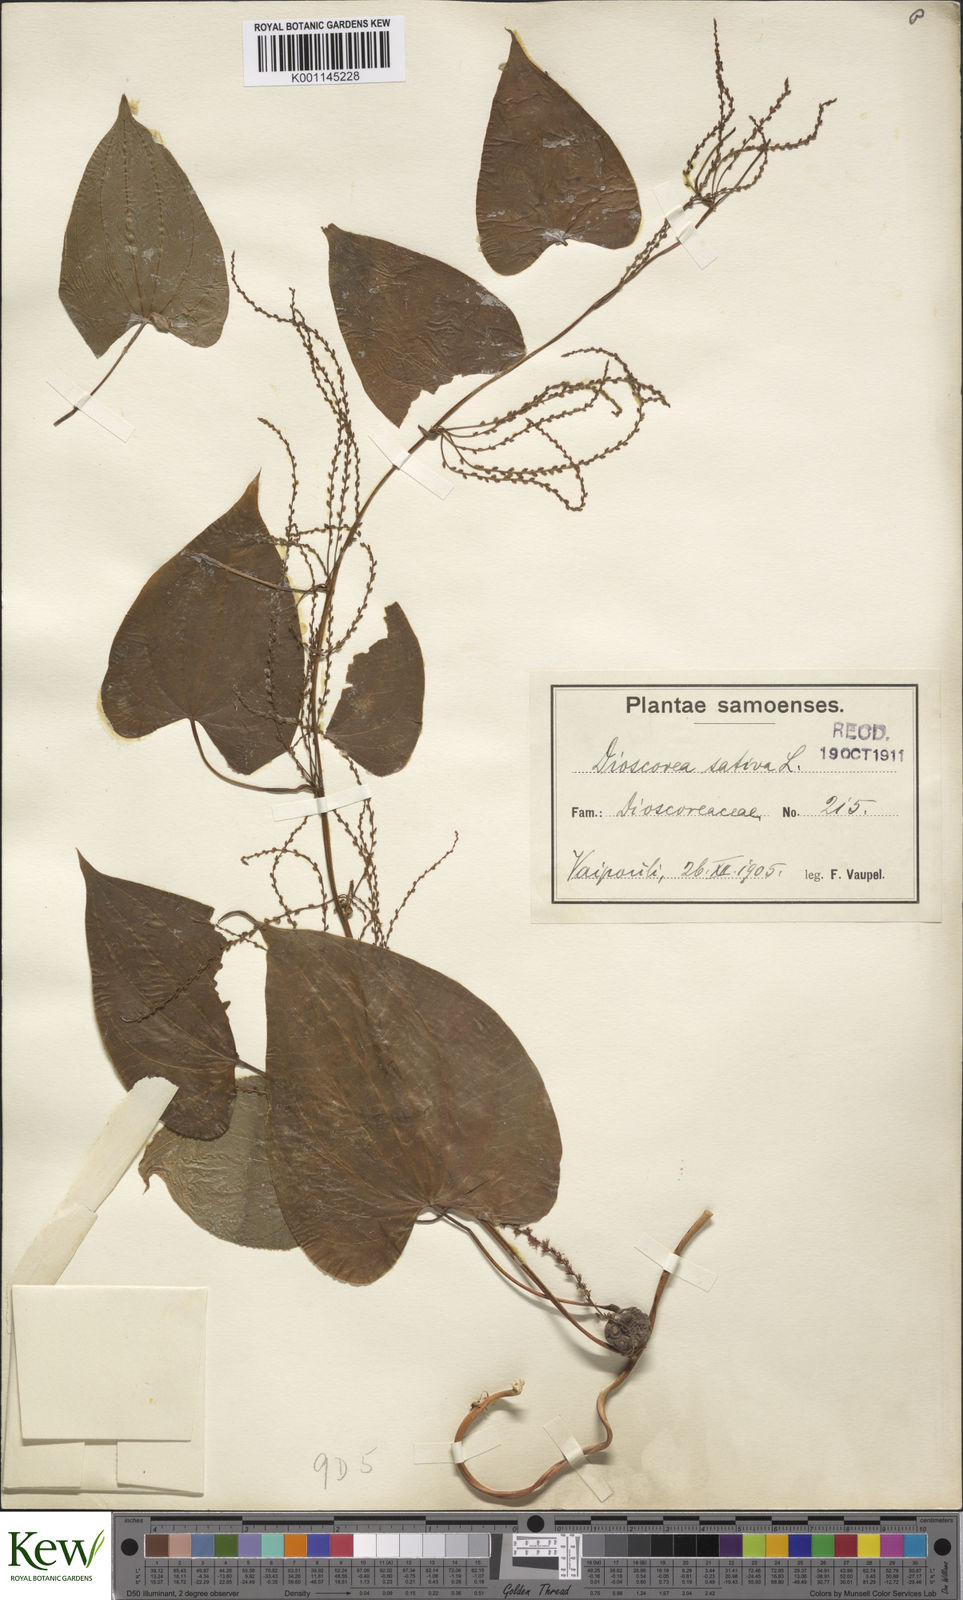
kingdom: Plantae
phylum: Tracheophyta
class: Liliopsida
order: Dioscoreales
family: Dioscoreaceae
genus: Dioscorea
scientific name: Dioscorea bulbifera
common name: Air yam
